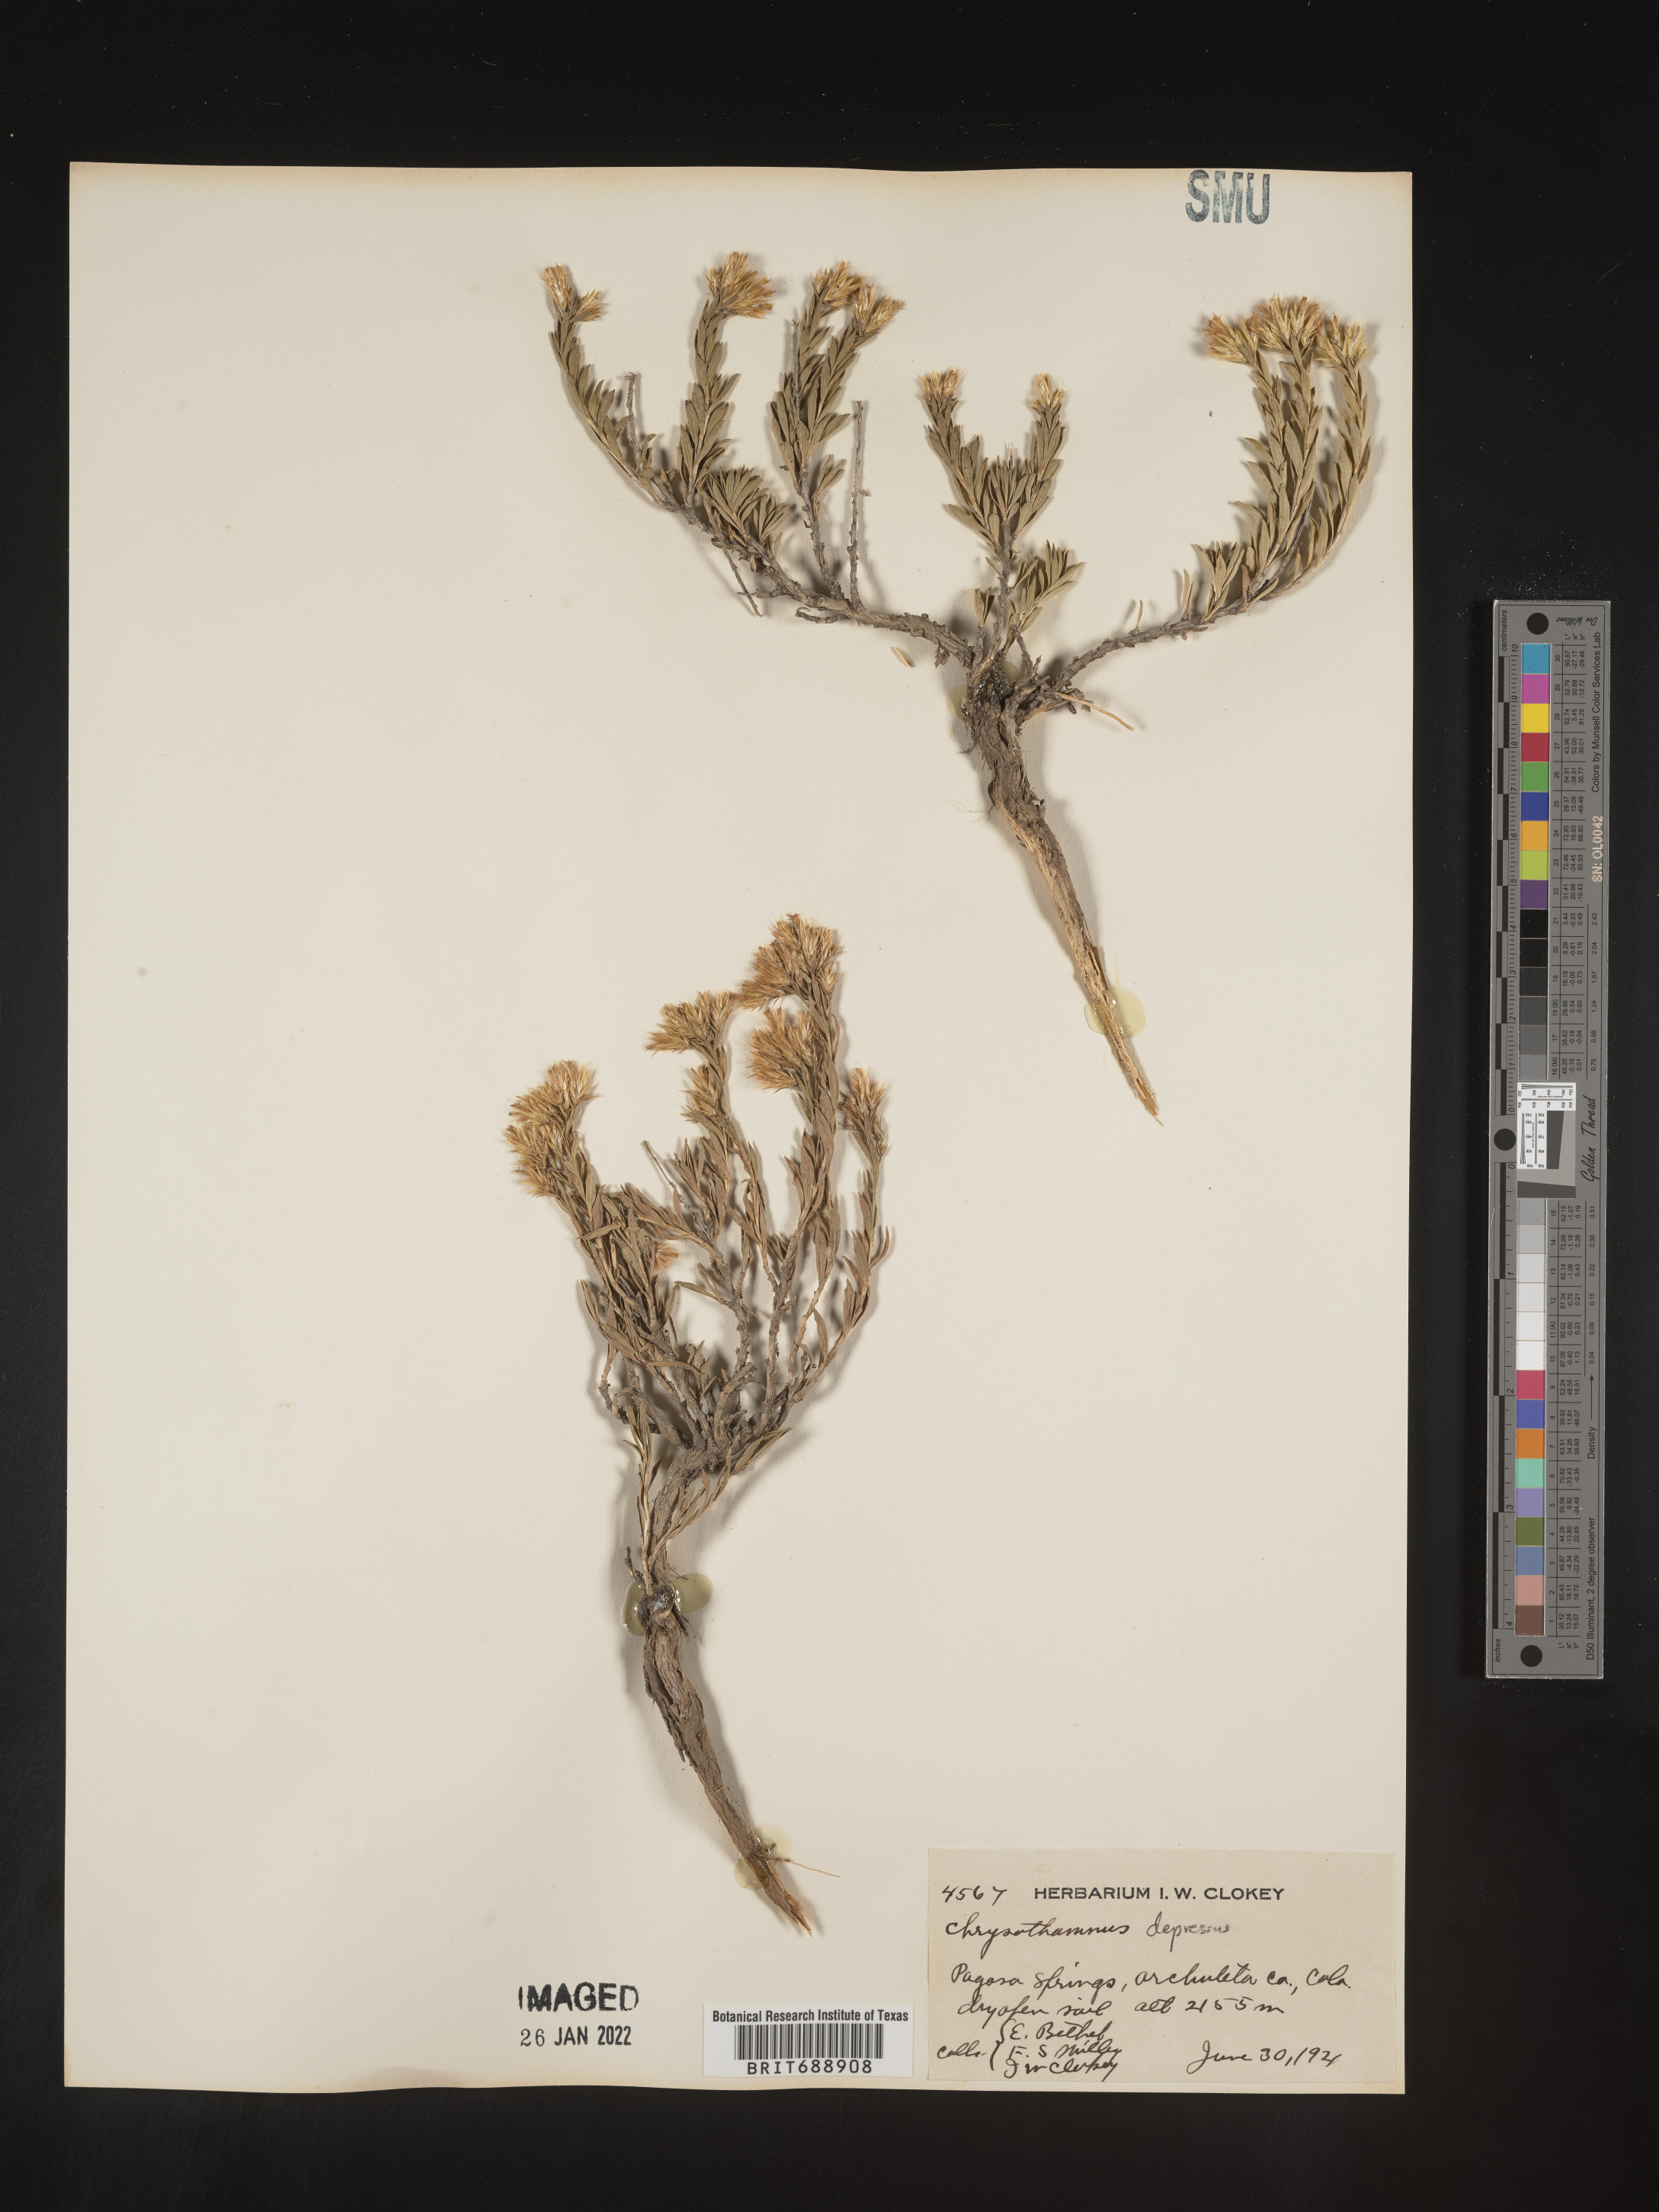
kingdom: Plantae
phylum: Tracheophyta
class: Magnoliopsida
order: Asterales
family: Asteraceae
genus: Chrysothamnus
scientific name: Chrysothamnus depressus
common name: Long-flower rabbitbrush
